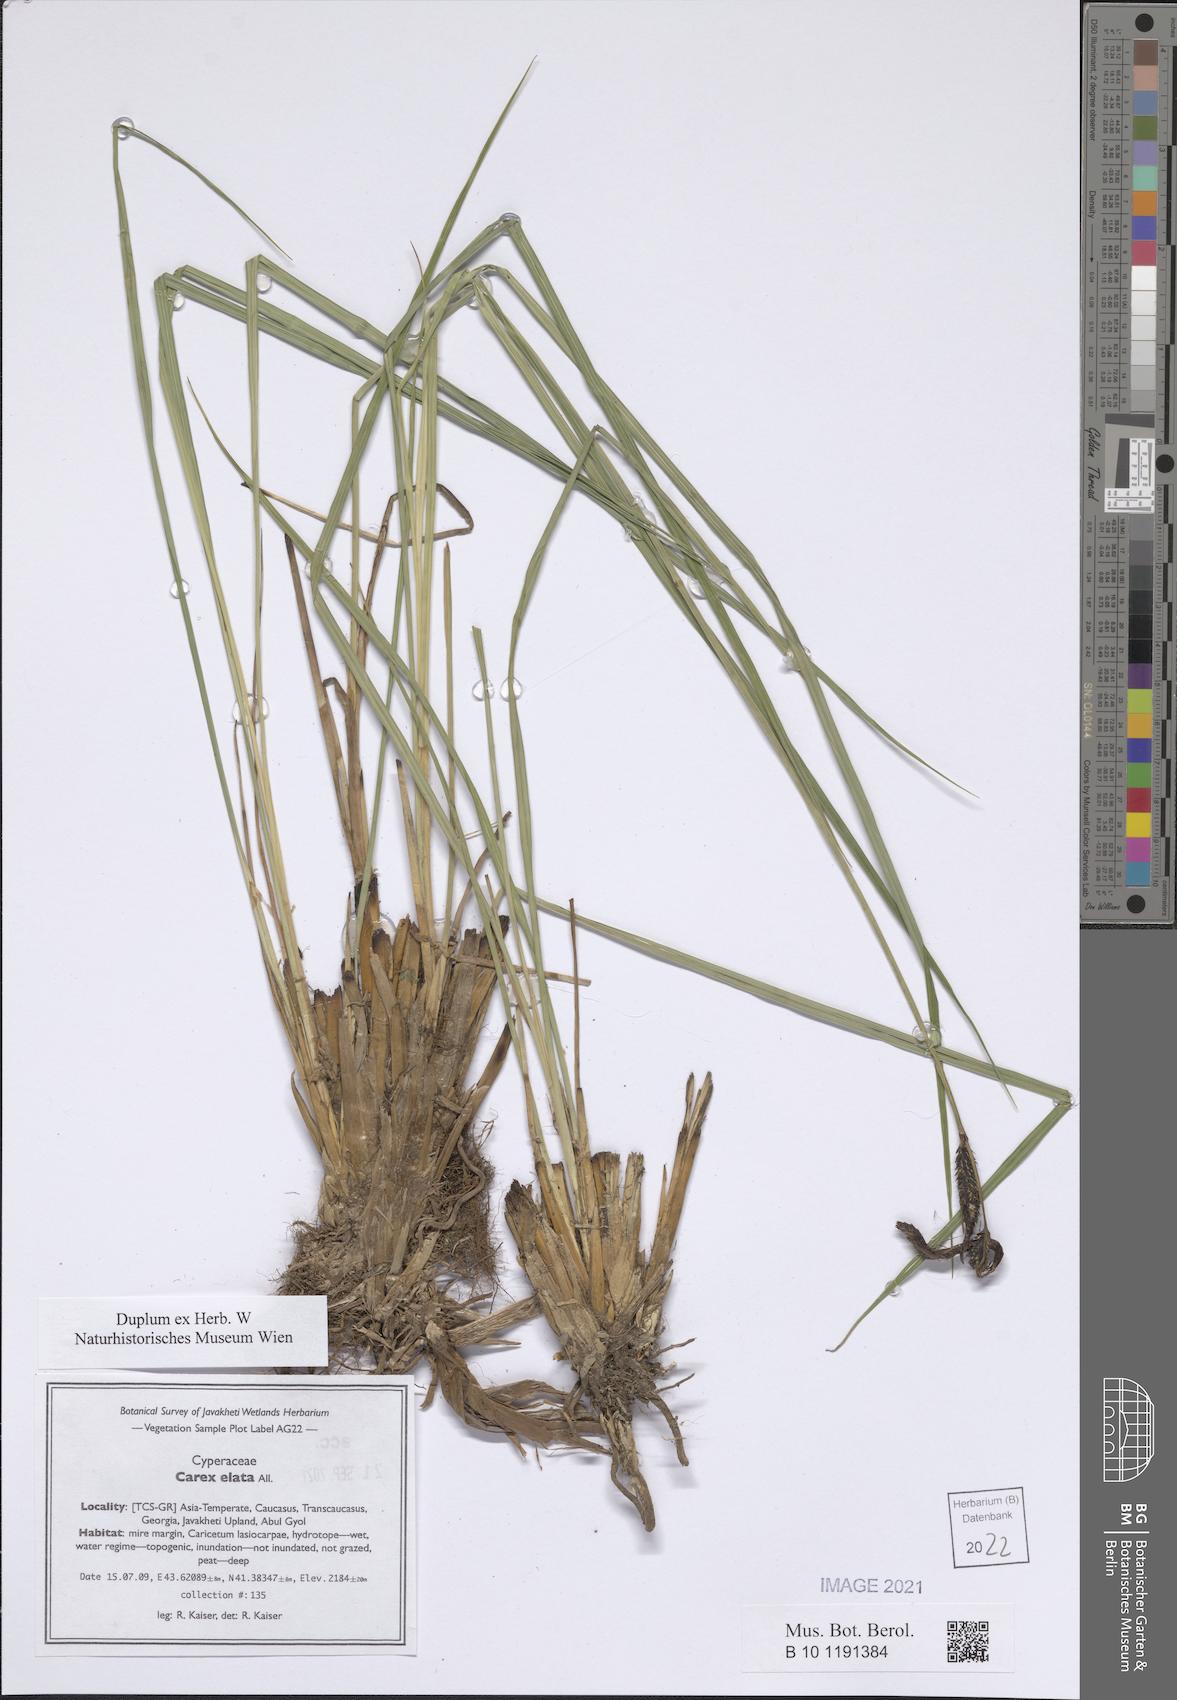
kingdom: Plantae
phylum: Tracheophyta
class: Liliopsida
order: Poales
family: Cyperaceae
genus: Carex
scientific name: Carex elata
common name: Tufted sedge
